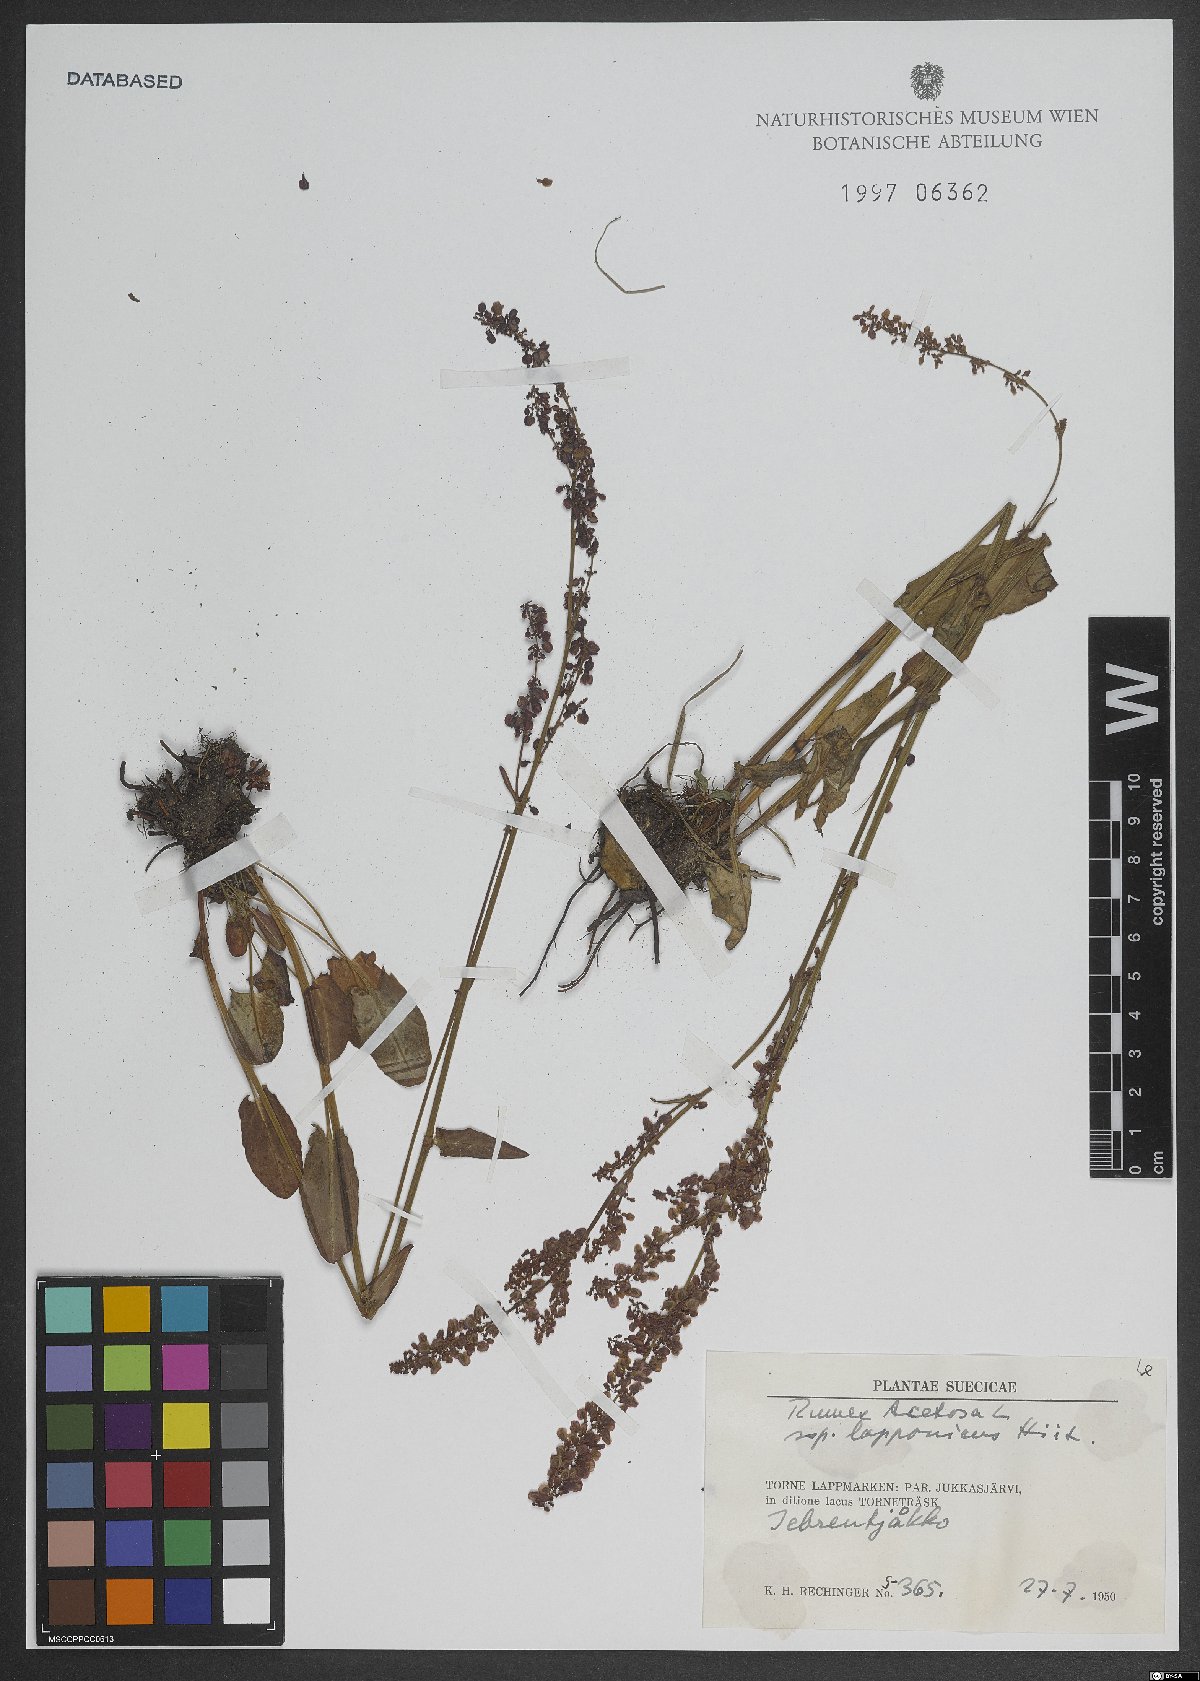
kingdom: Plantae
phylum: Tracheophyta
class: Magnoliopsida
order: Caryophyllales
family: Polygonaceae
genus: Rumex
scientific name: Rumex acetosa
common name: Garden sorrel
